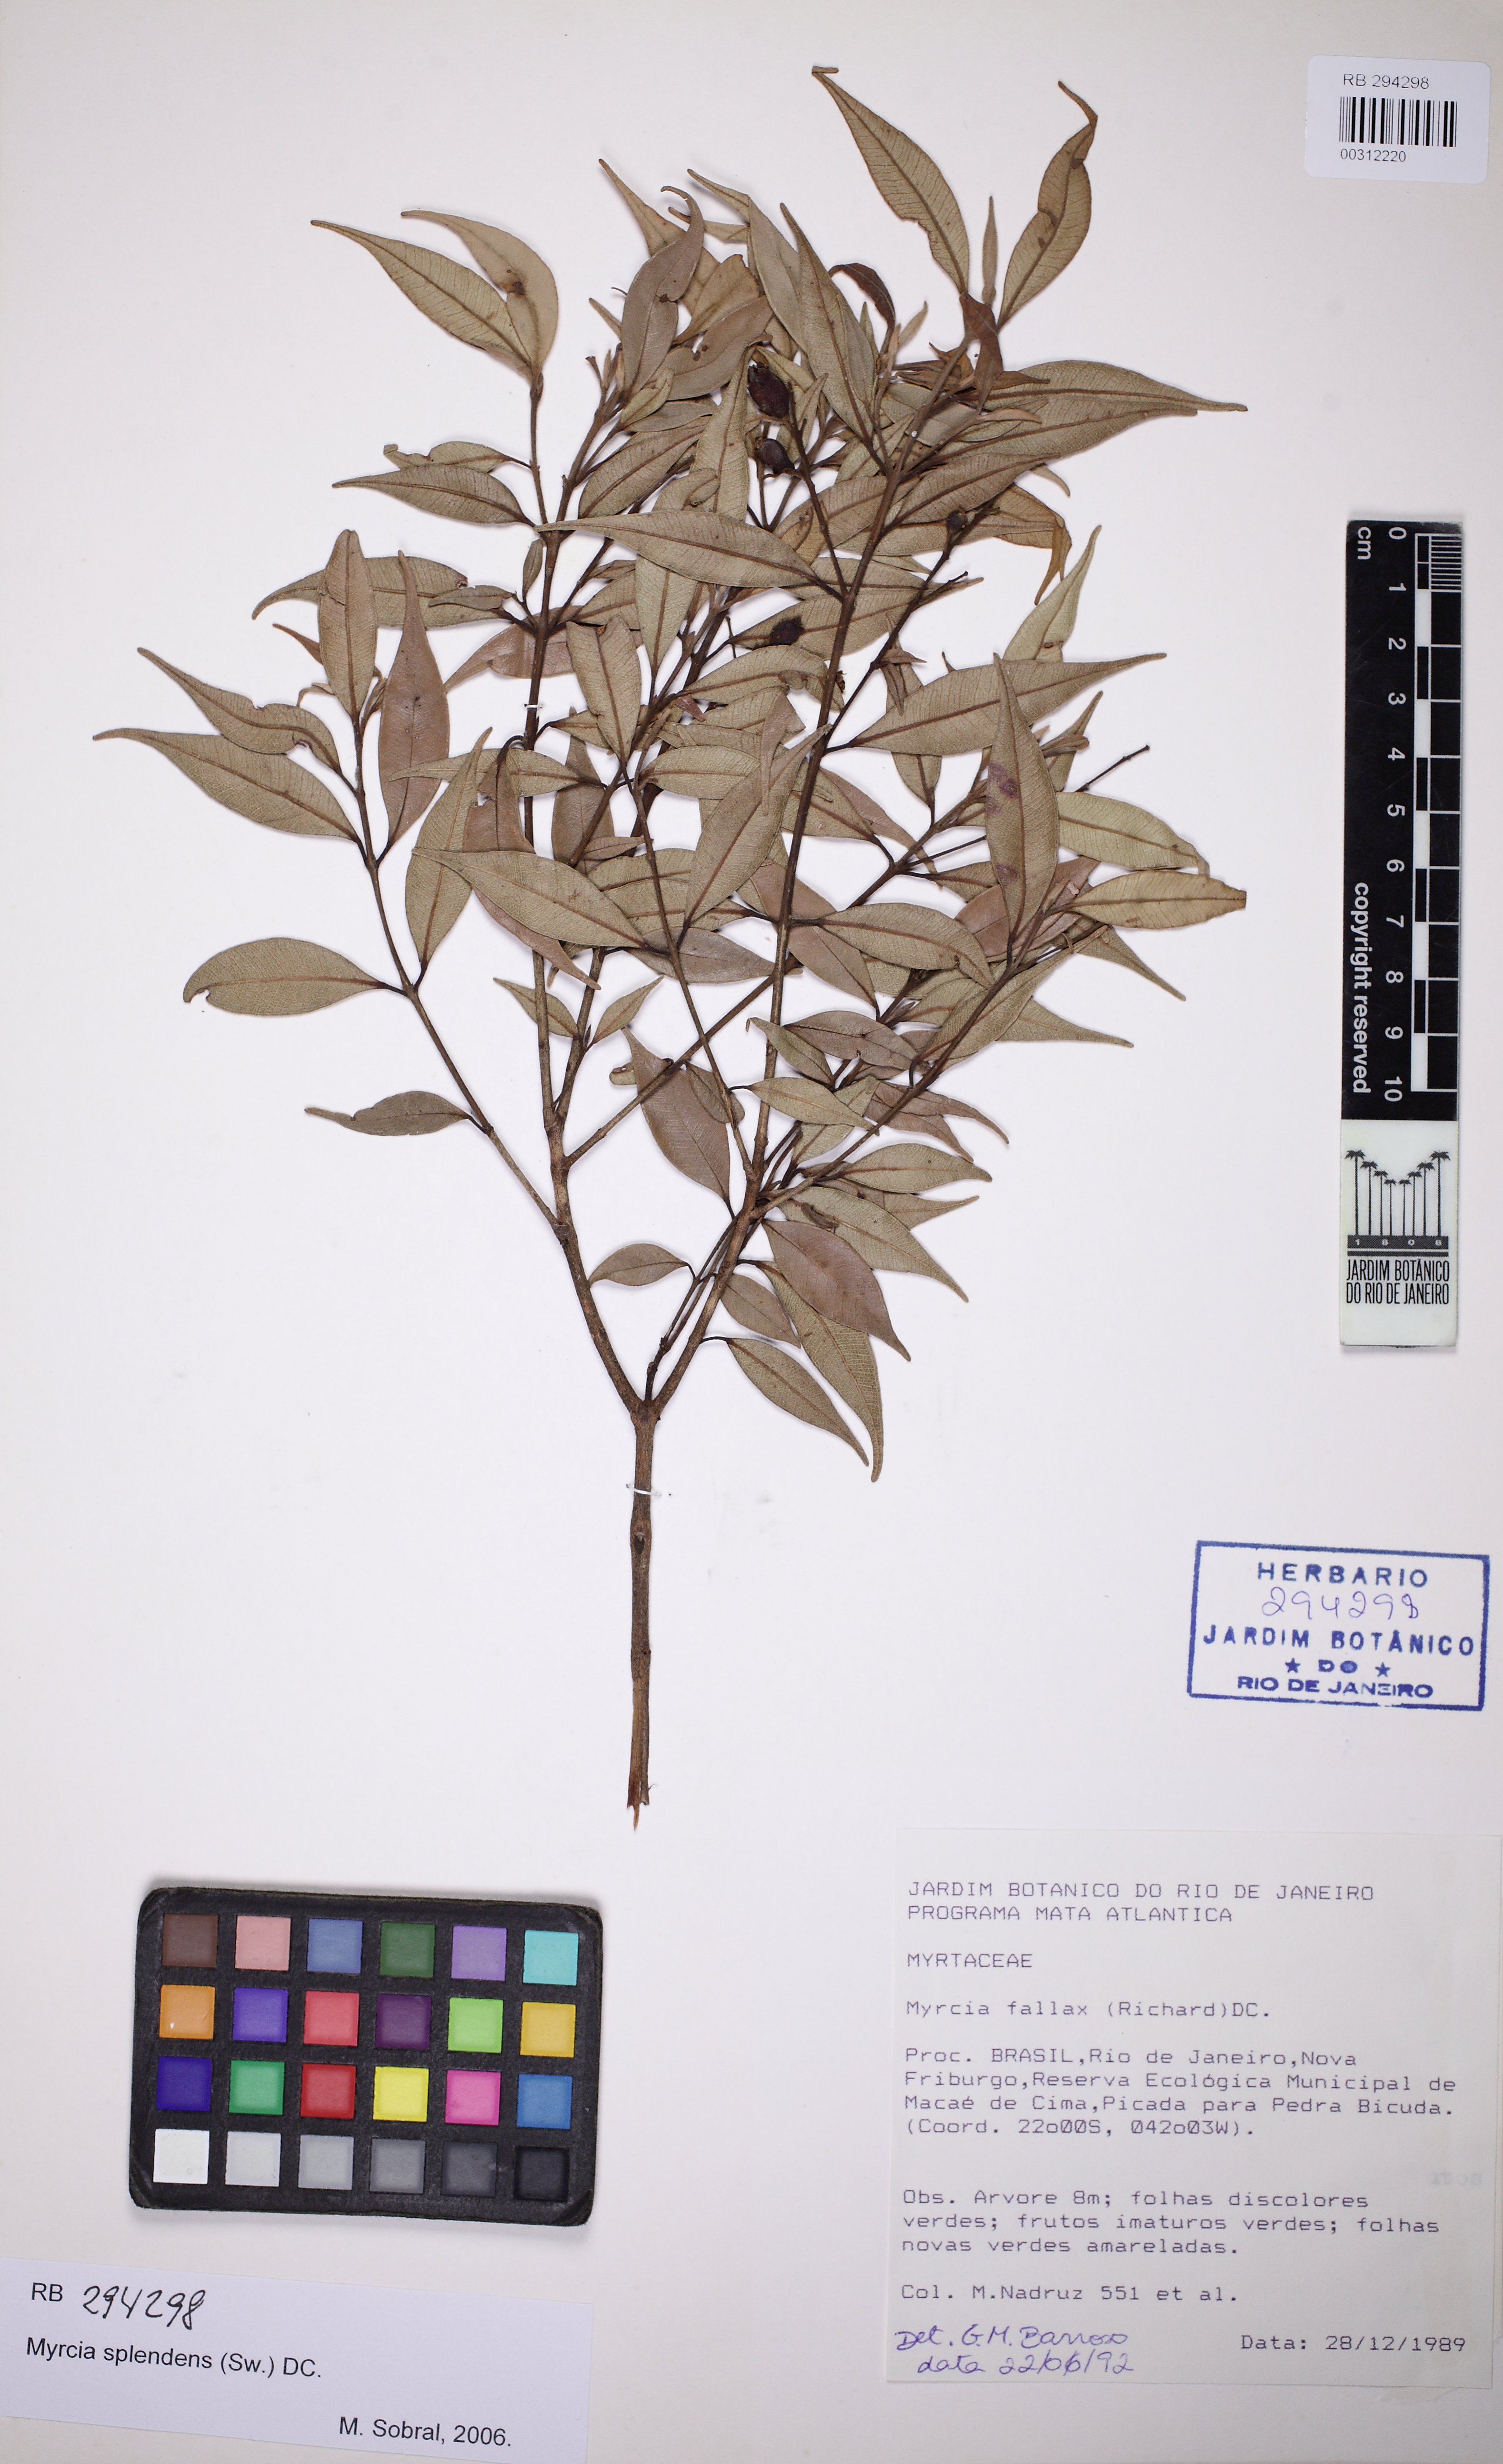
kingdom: Plantae
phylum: Tracheophyta
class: Magnoliopsida
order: Myrtales
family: Myrtaceae
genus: Myrcia
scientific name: Myrcia splendens
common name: Surinam cherry
